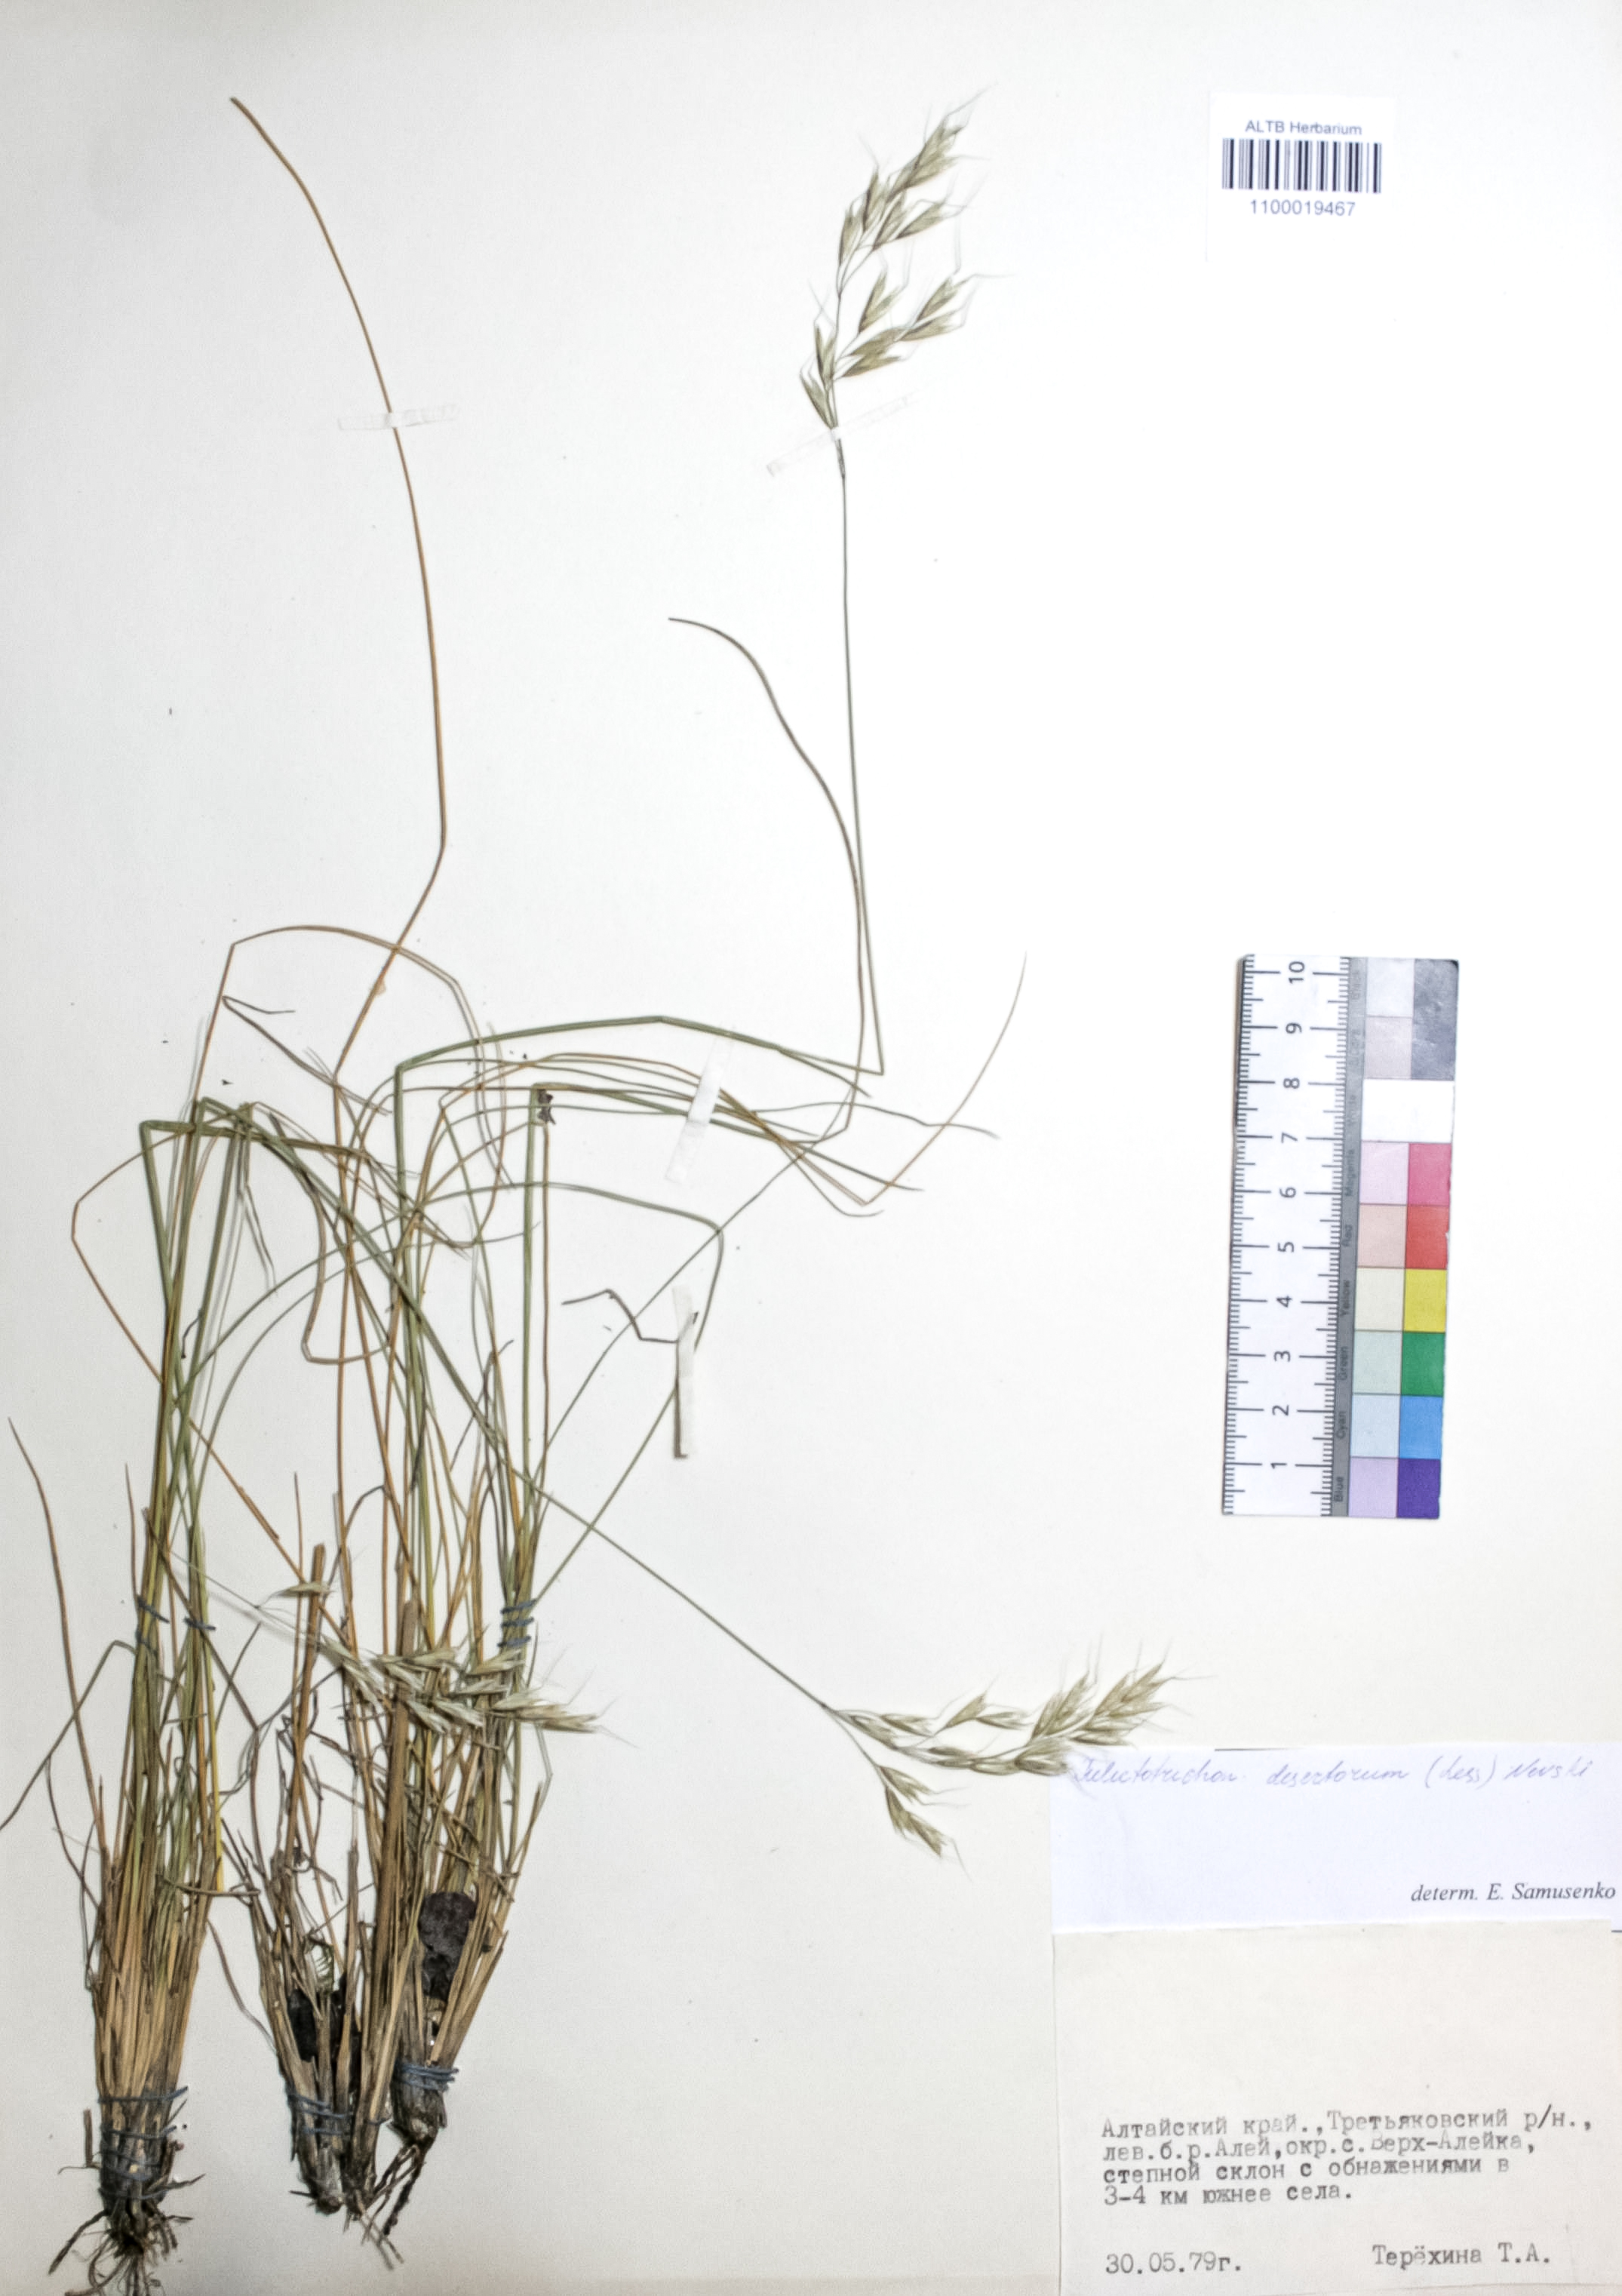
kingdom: Plantae
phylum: Tracheophyta
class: Liliopsida
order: Poales
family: Poaceae
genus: Helictotrichon
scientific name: Helictotrichon desertorum
